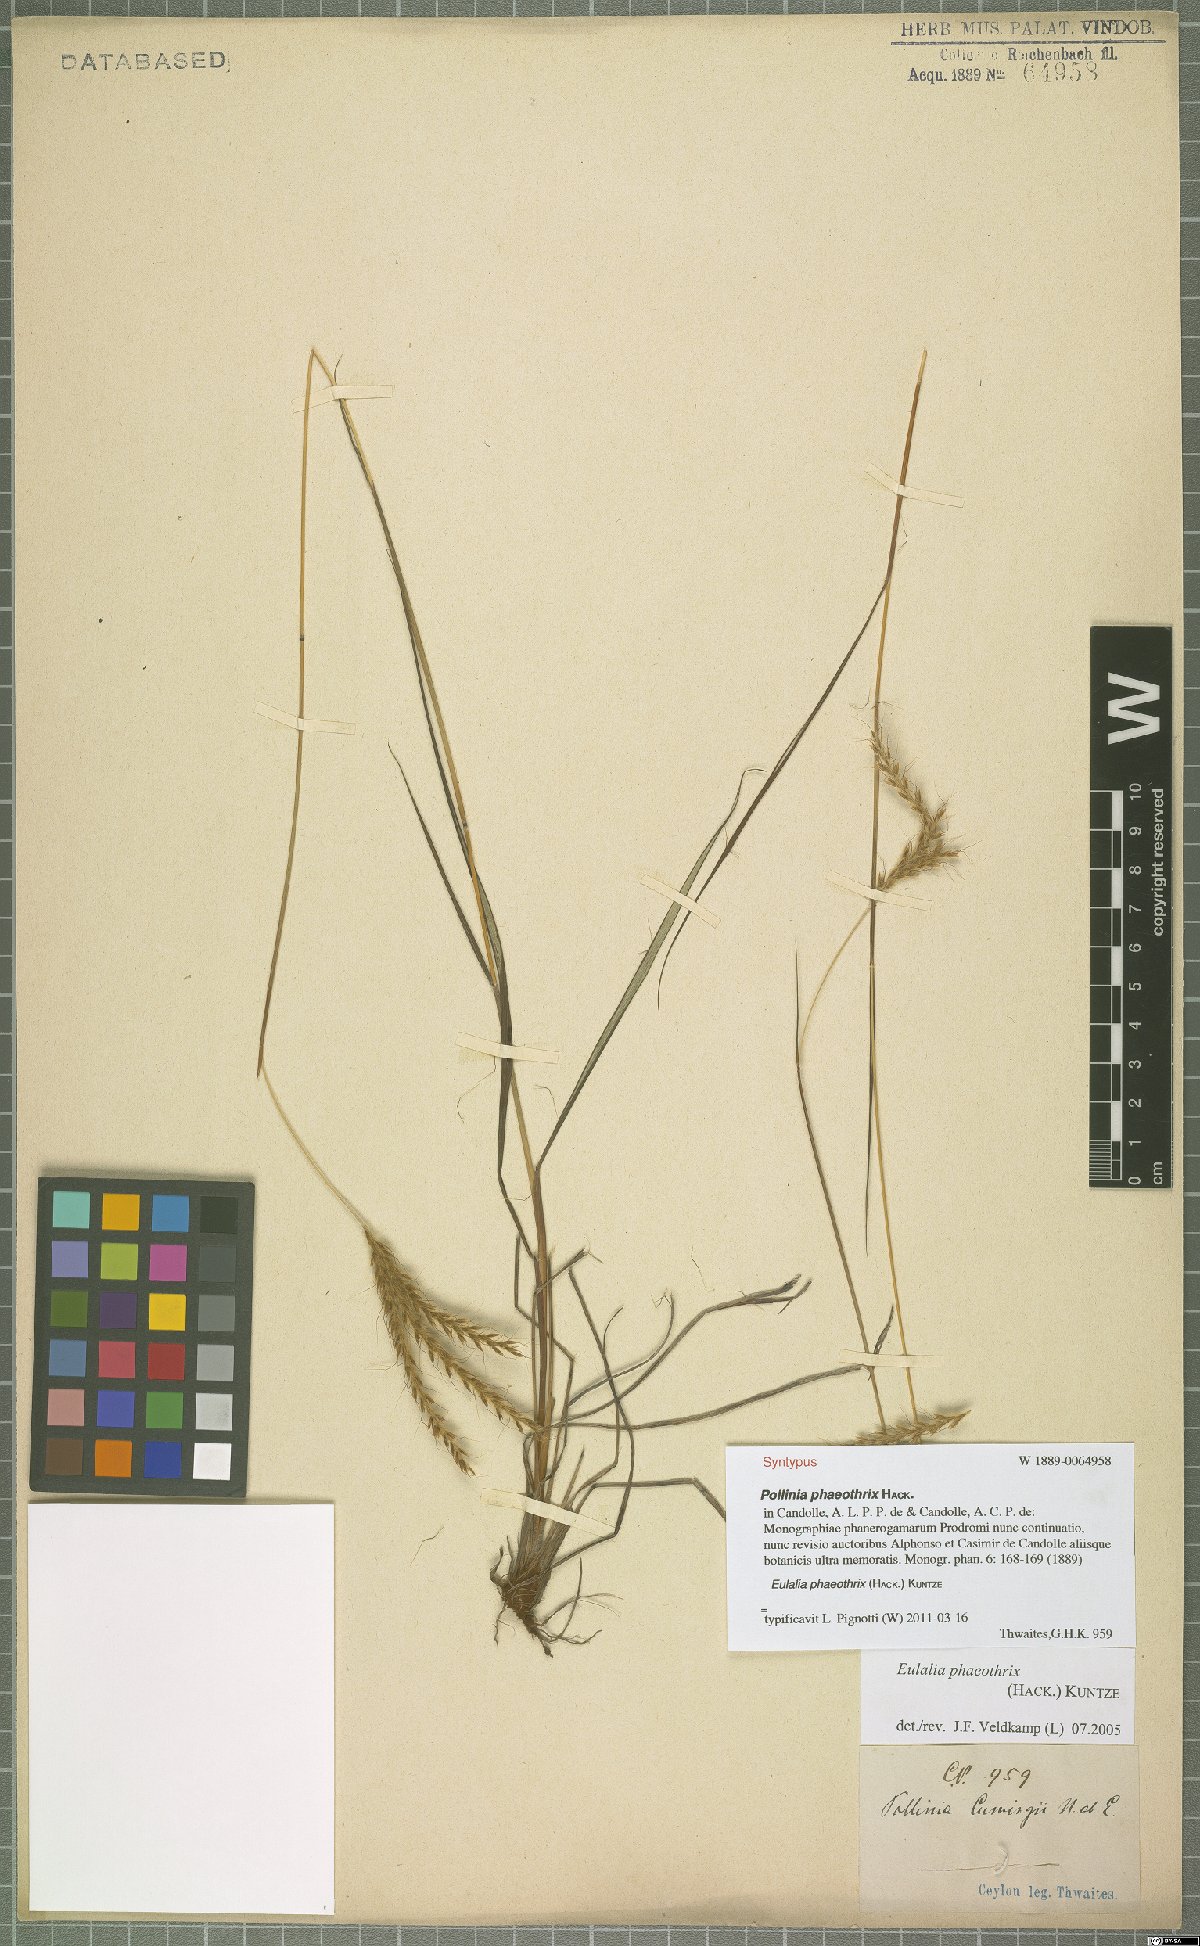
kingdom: Plantae
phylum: Tracheophyta
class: Liliopsida
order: Poales
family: Poaceae
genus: Eulalia
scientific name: Eulalia phaeothrix
